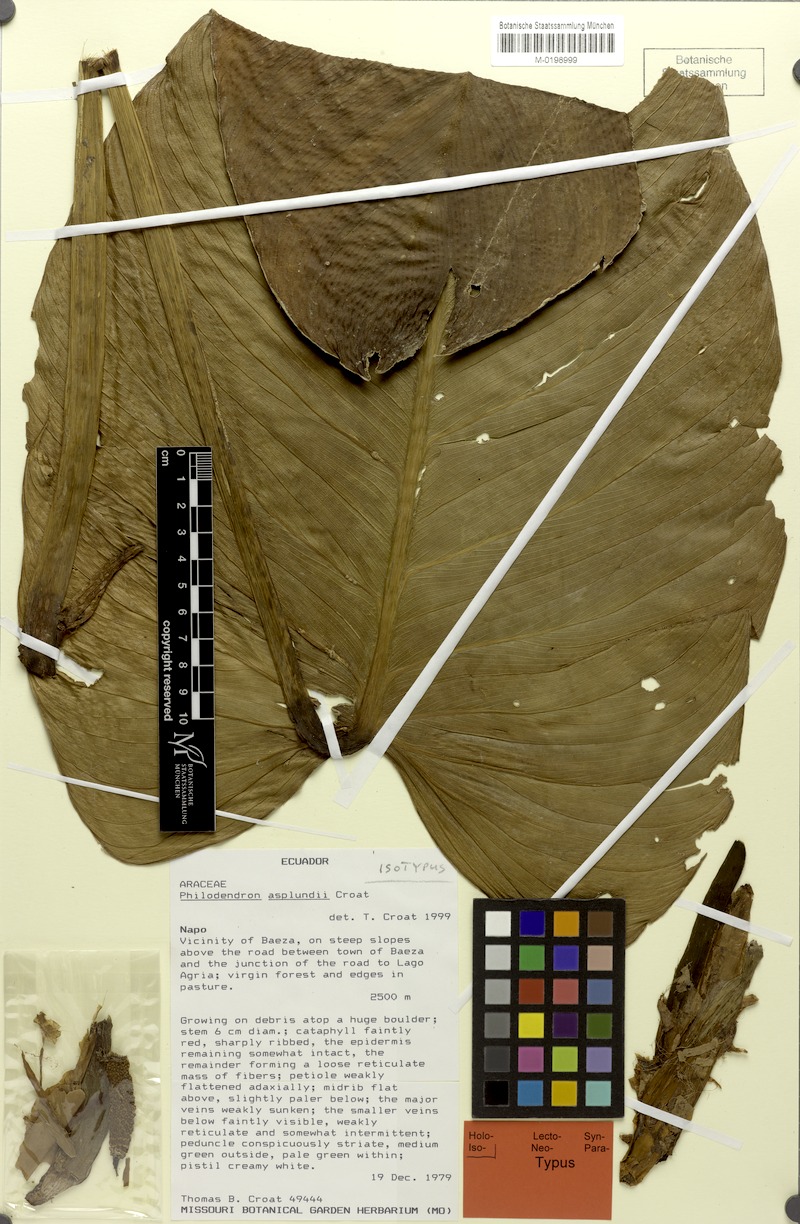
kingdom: Plantae
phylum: Tracheophyta
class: Liliopsida
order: Alismatales
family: Araceae
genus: Philodendron
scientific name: Philodendron asplundii
